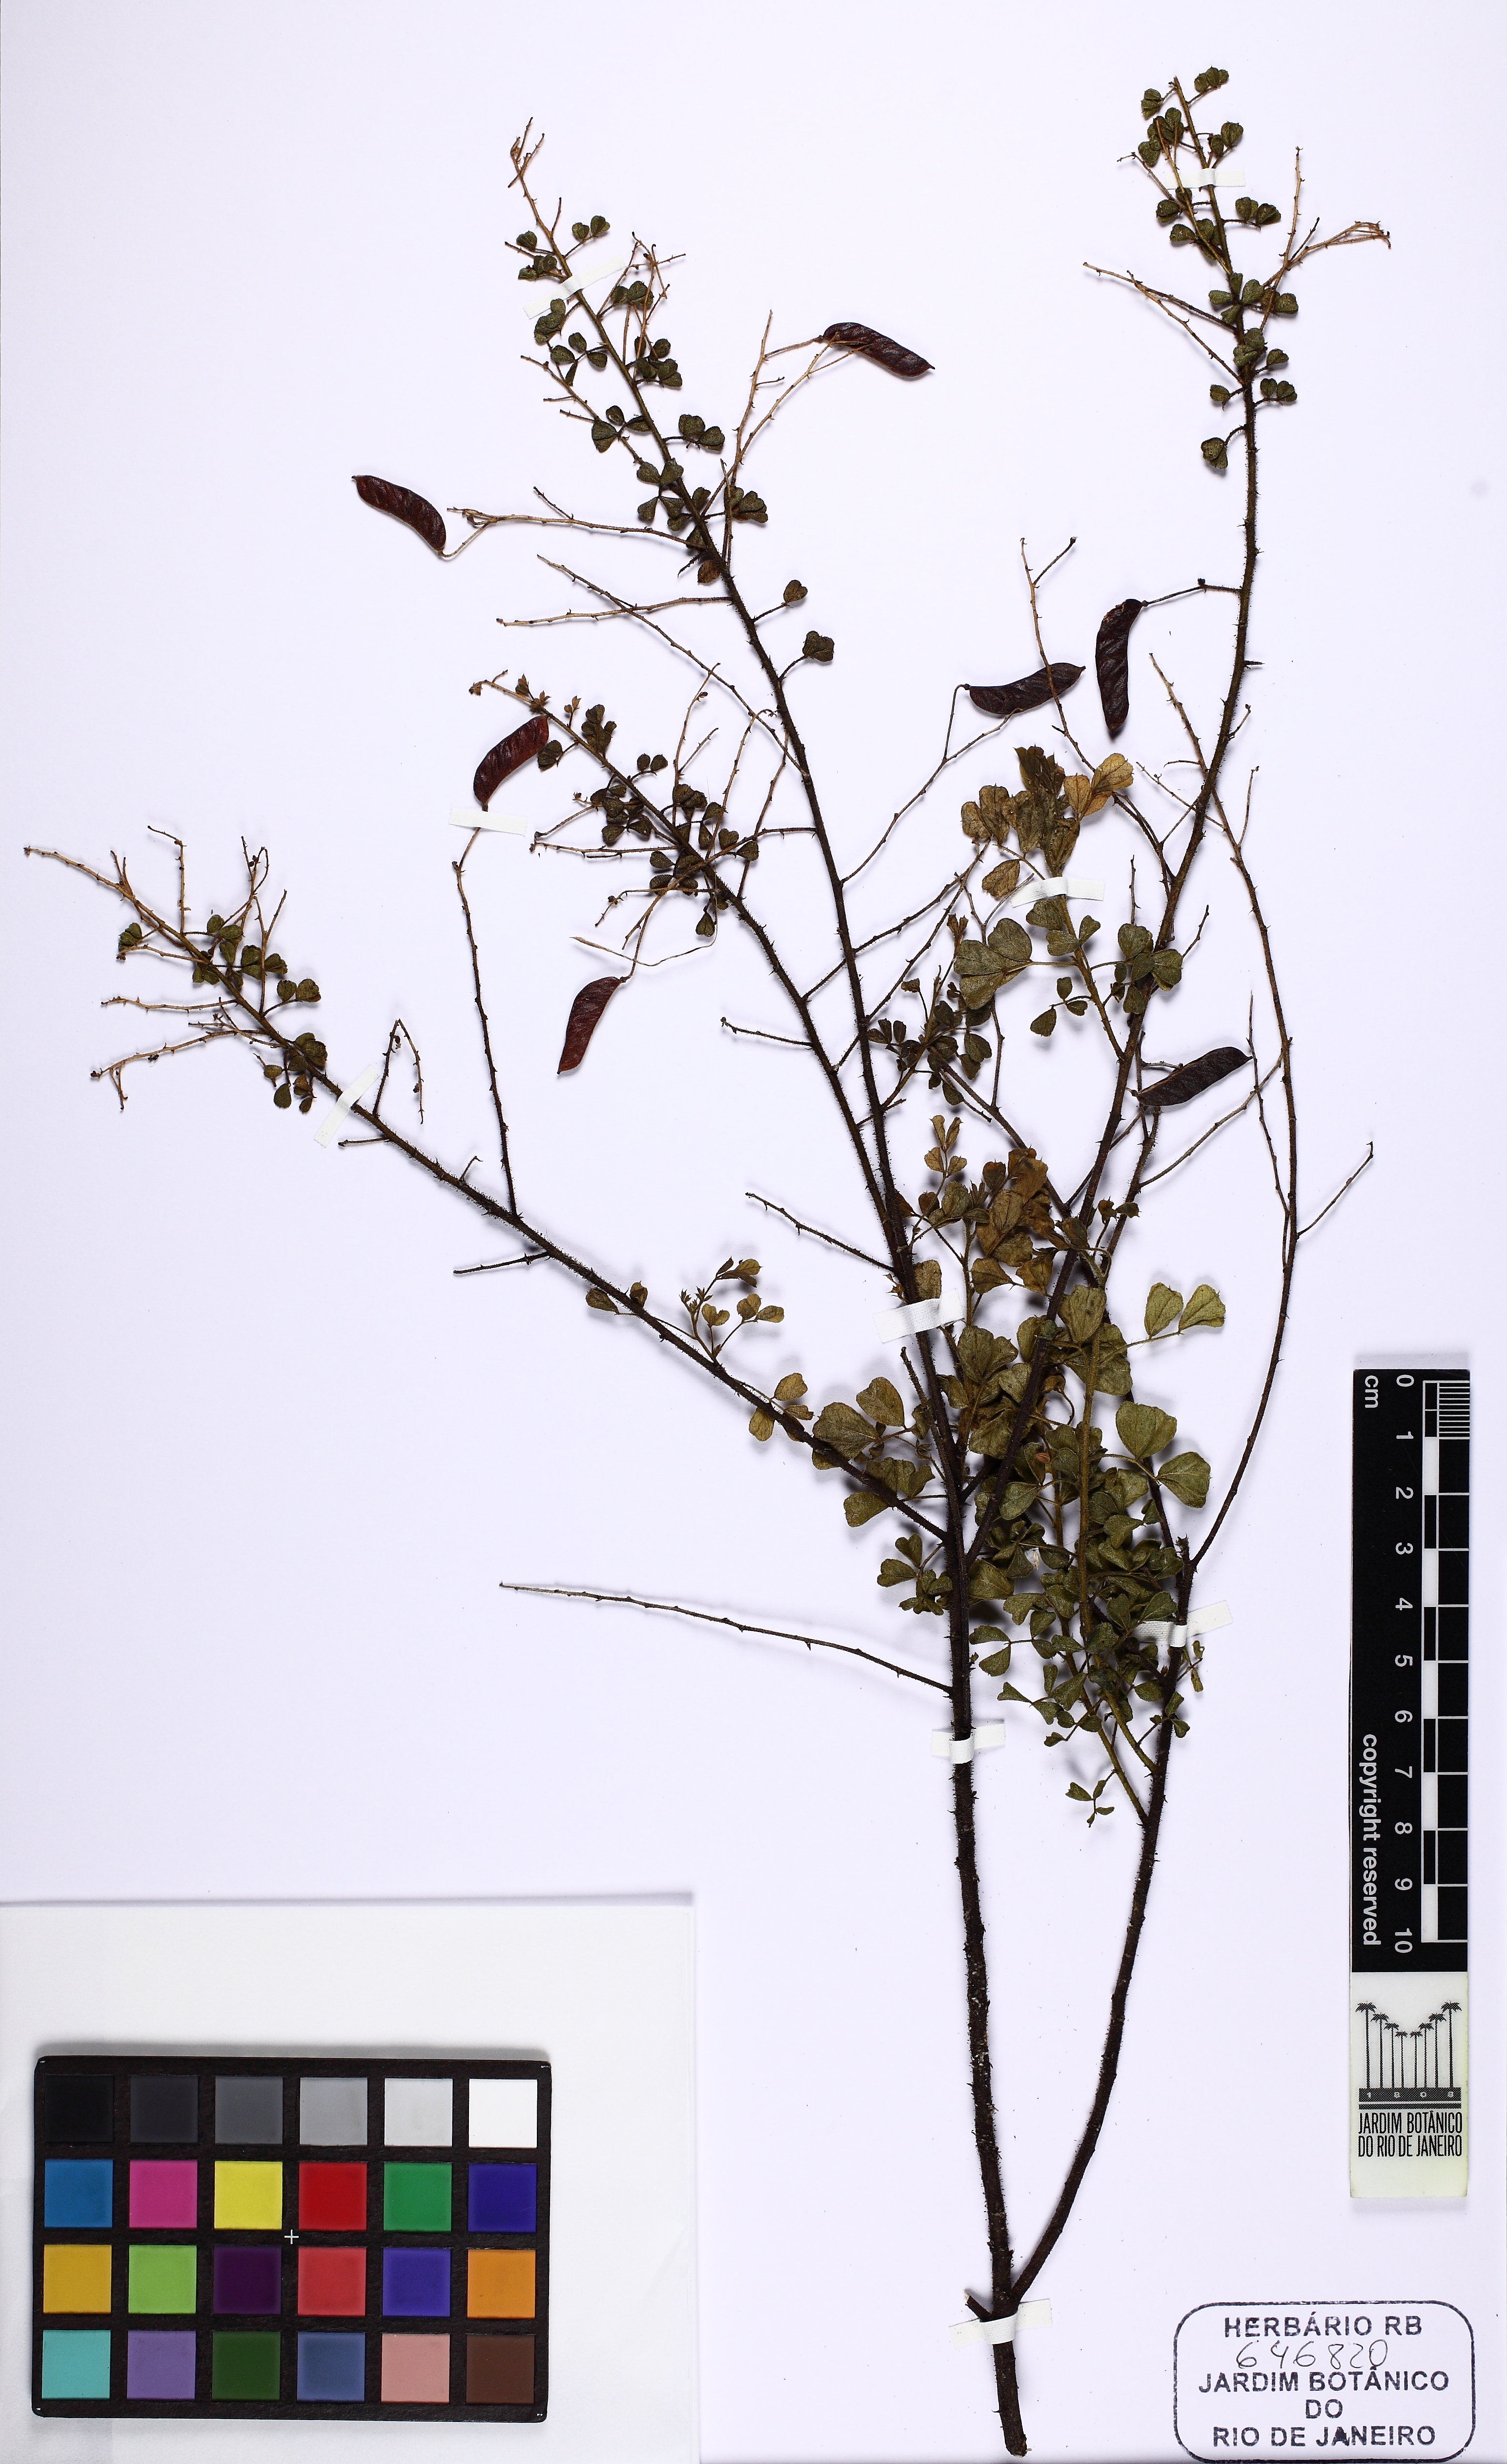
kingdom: Plantae
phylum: Tracheophyta
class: Magnoliopsida
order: Fabales
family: Fabaceae
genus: Chamaecrista
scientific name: Chamaecrista
